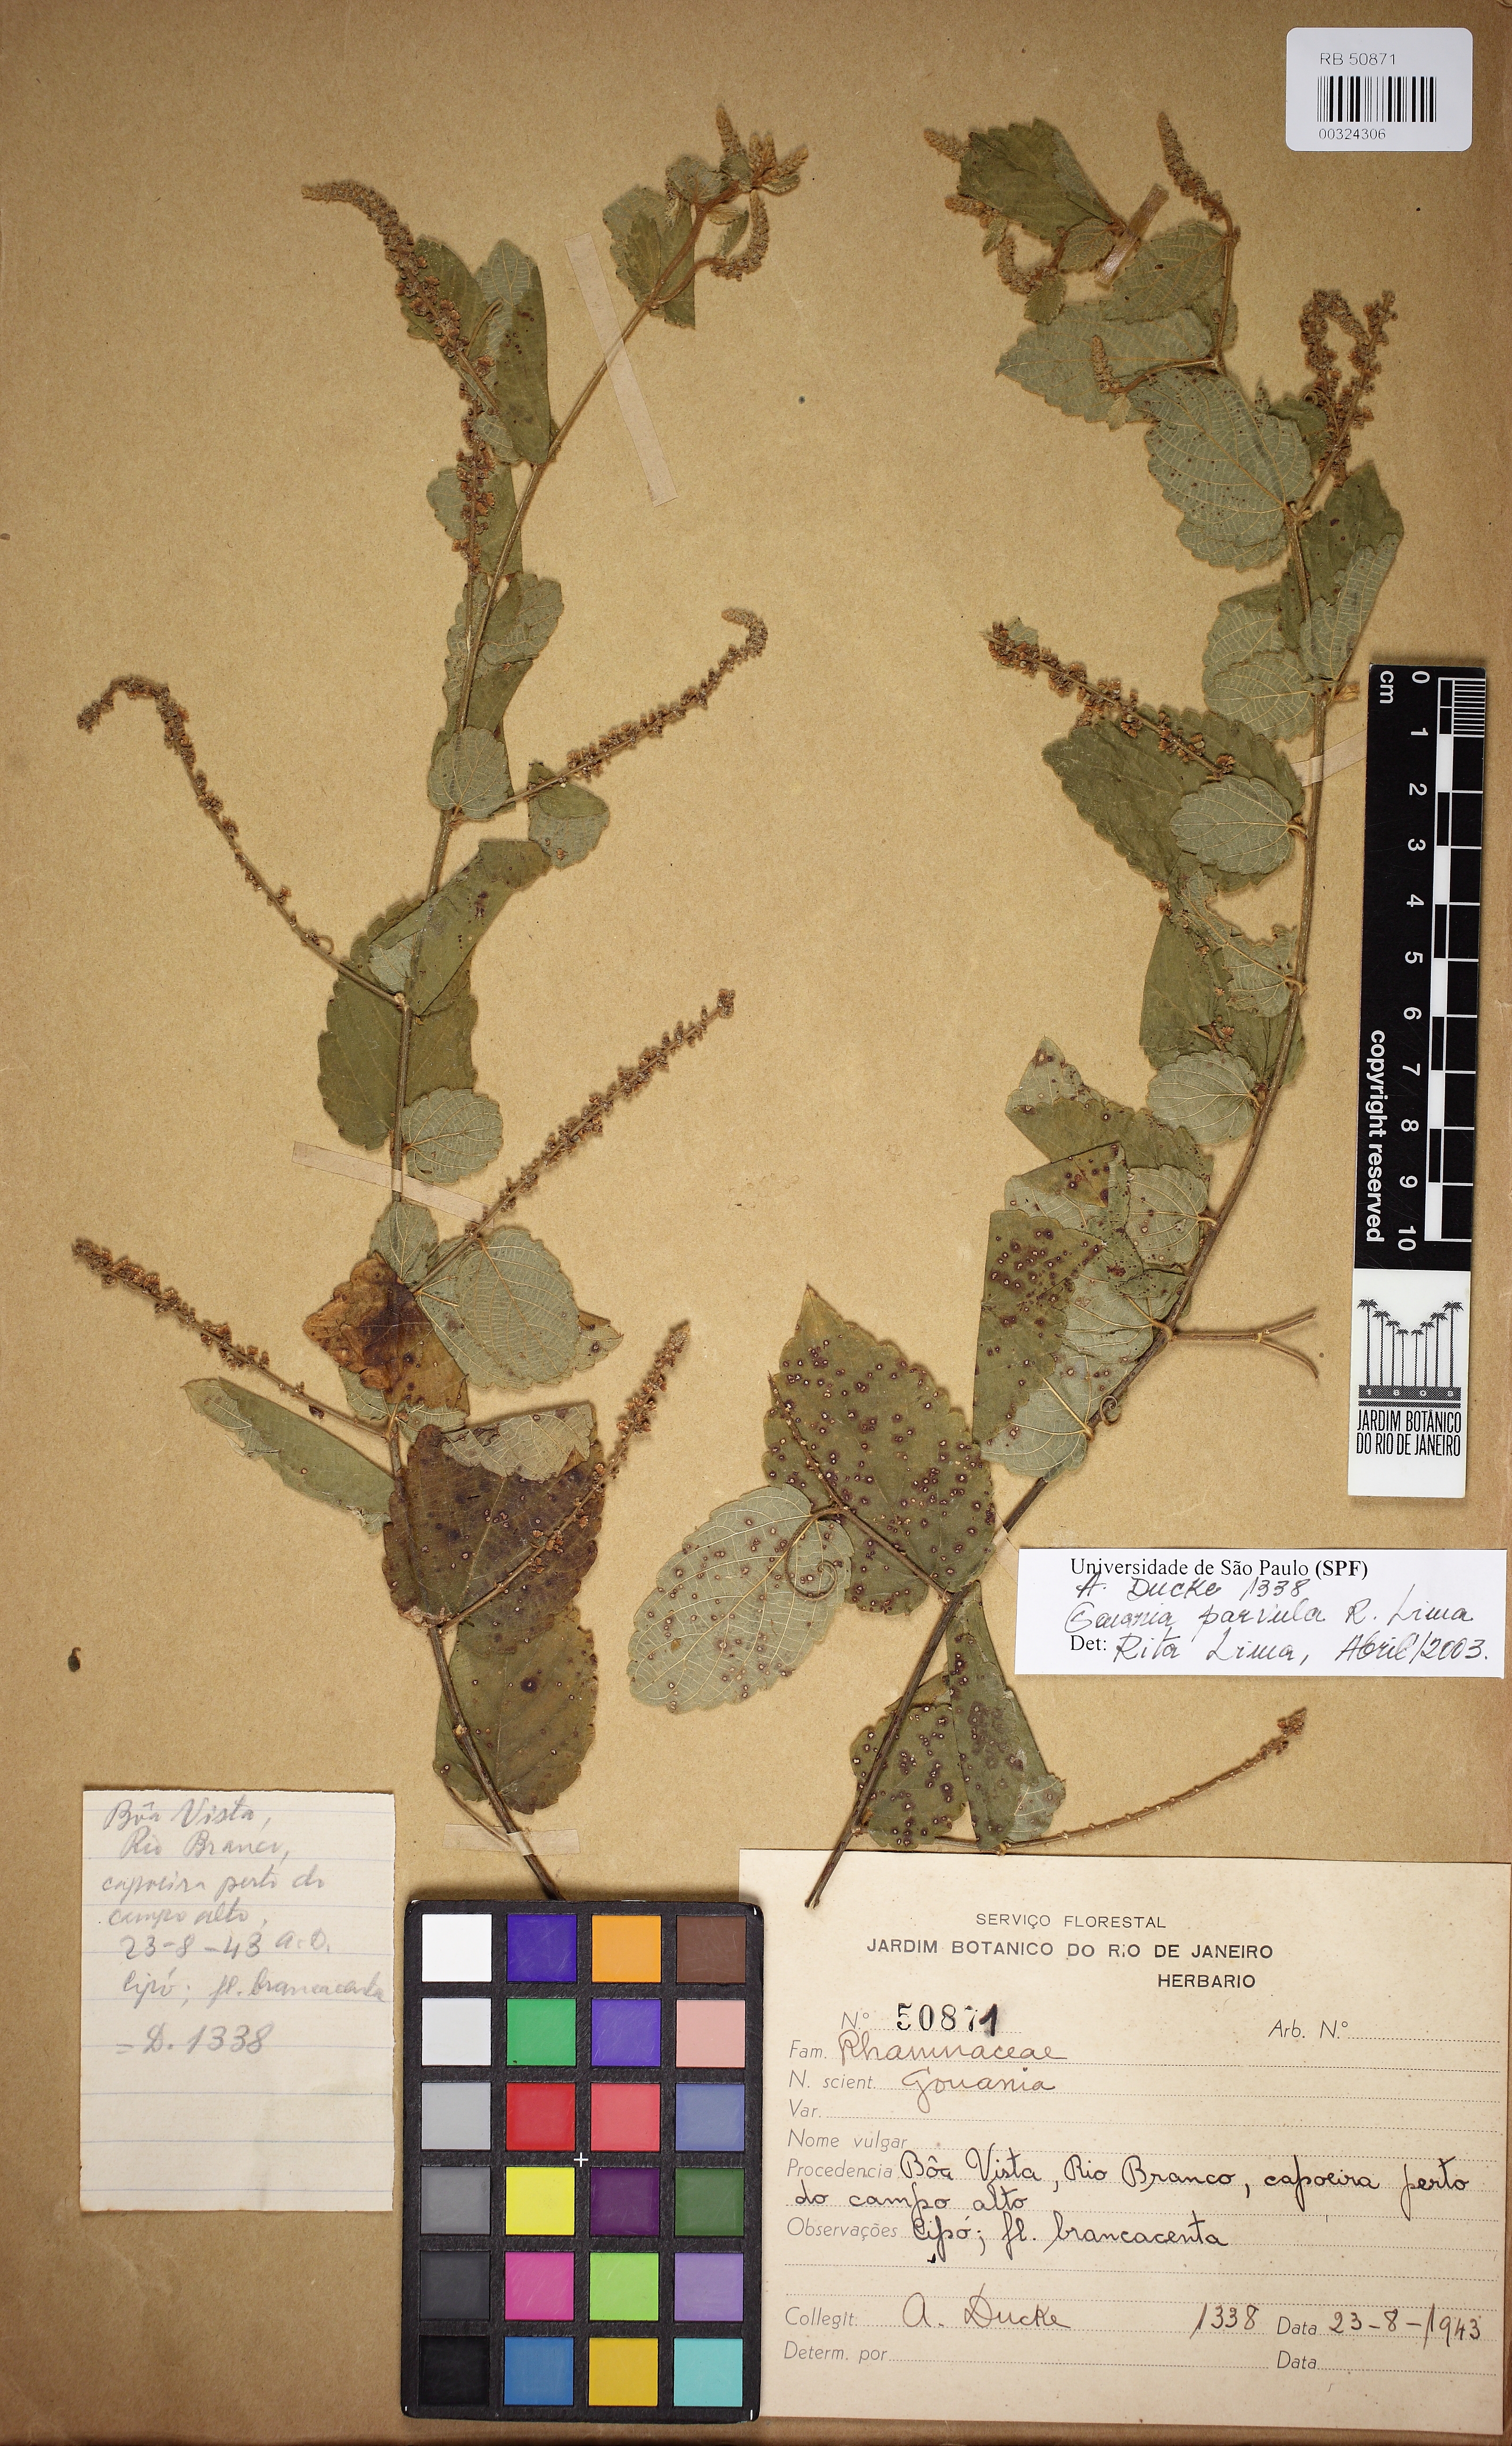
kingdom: Plantae
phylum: Tracheophyta
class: Magnoliopsida
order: Rosales
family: Rhamnaceae
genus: Gouania
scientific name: Gouania
